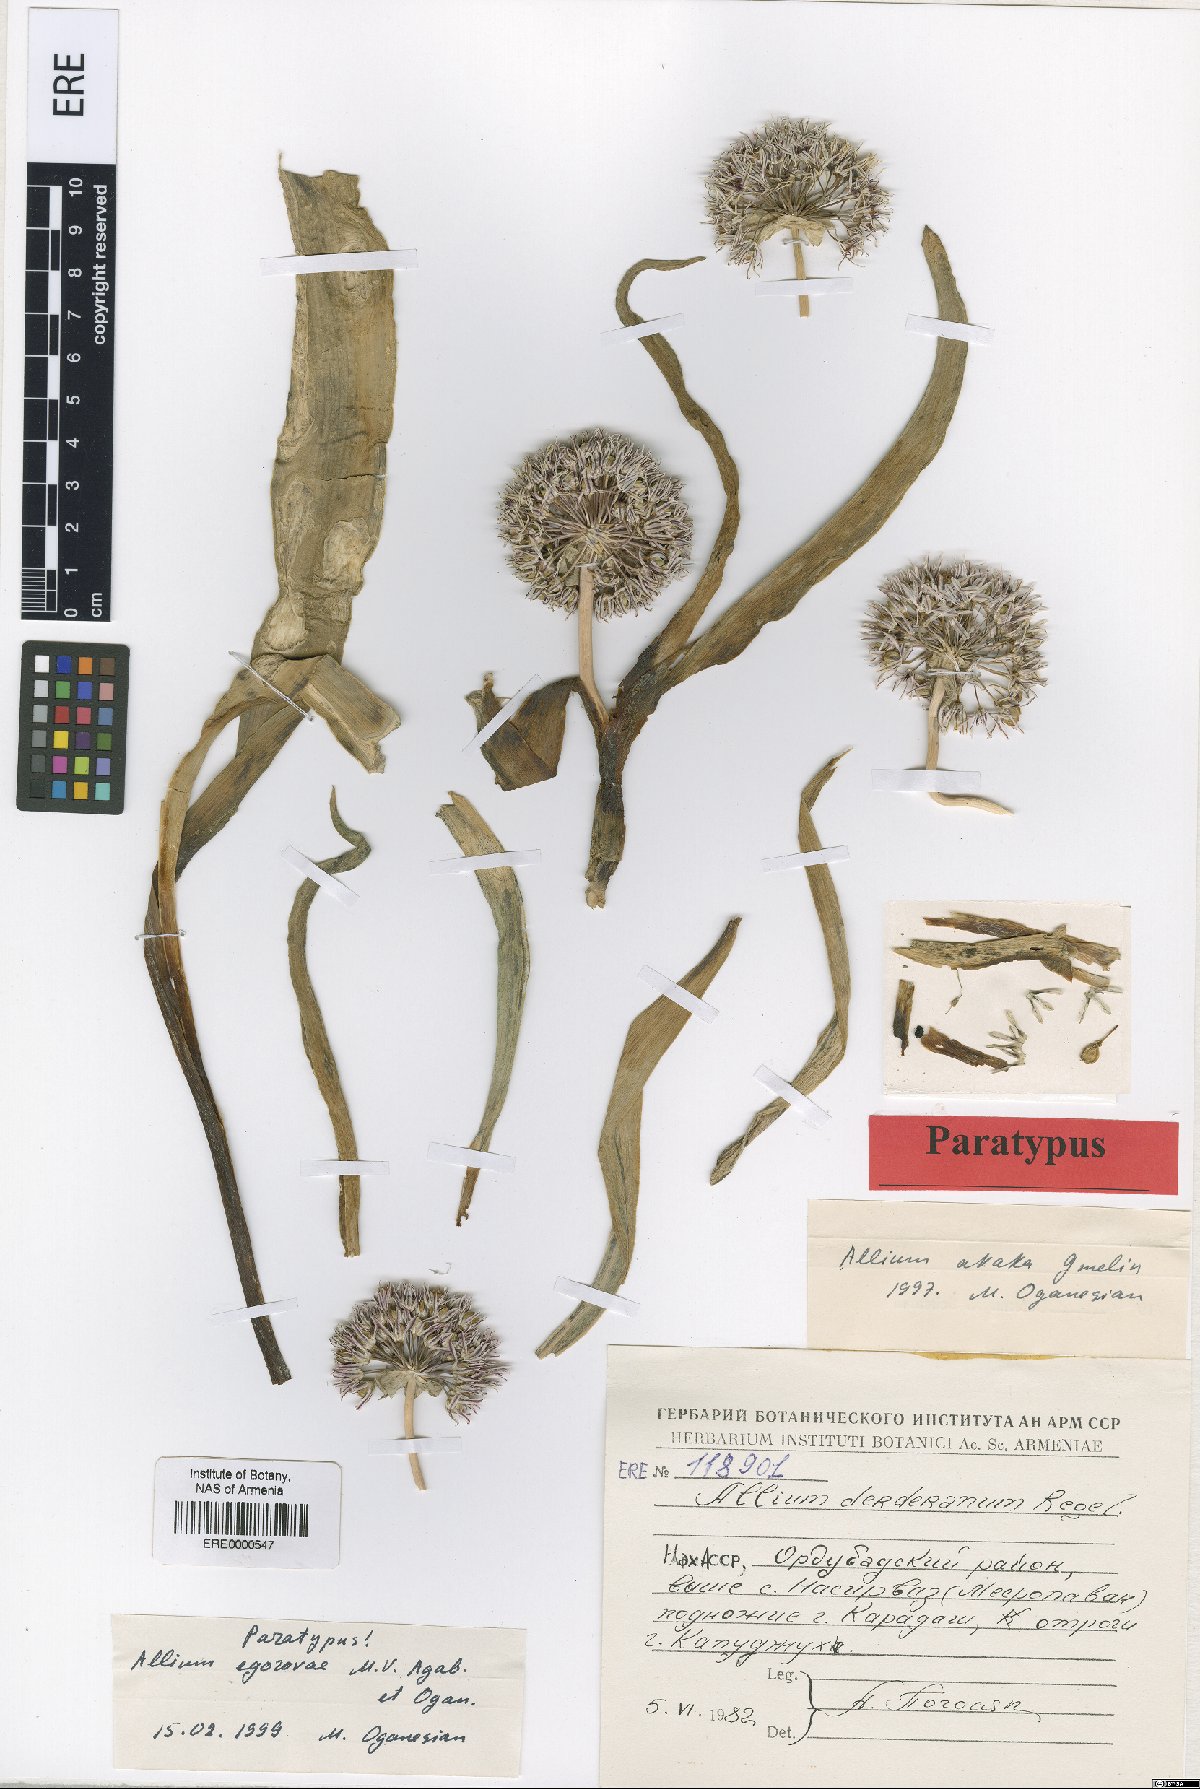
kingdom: Plantae
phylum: Tracheophyta
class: Liliopsida
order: Asparagales
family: Amaryllidaceae
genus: Allium
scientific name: Allium egorovae
